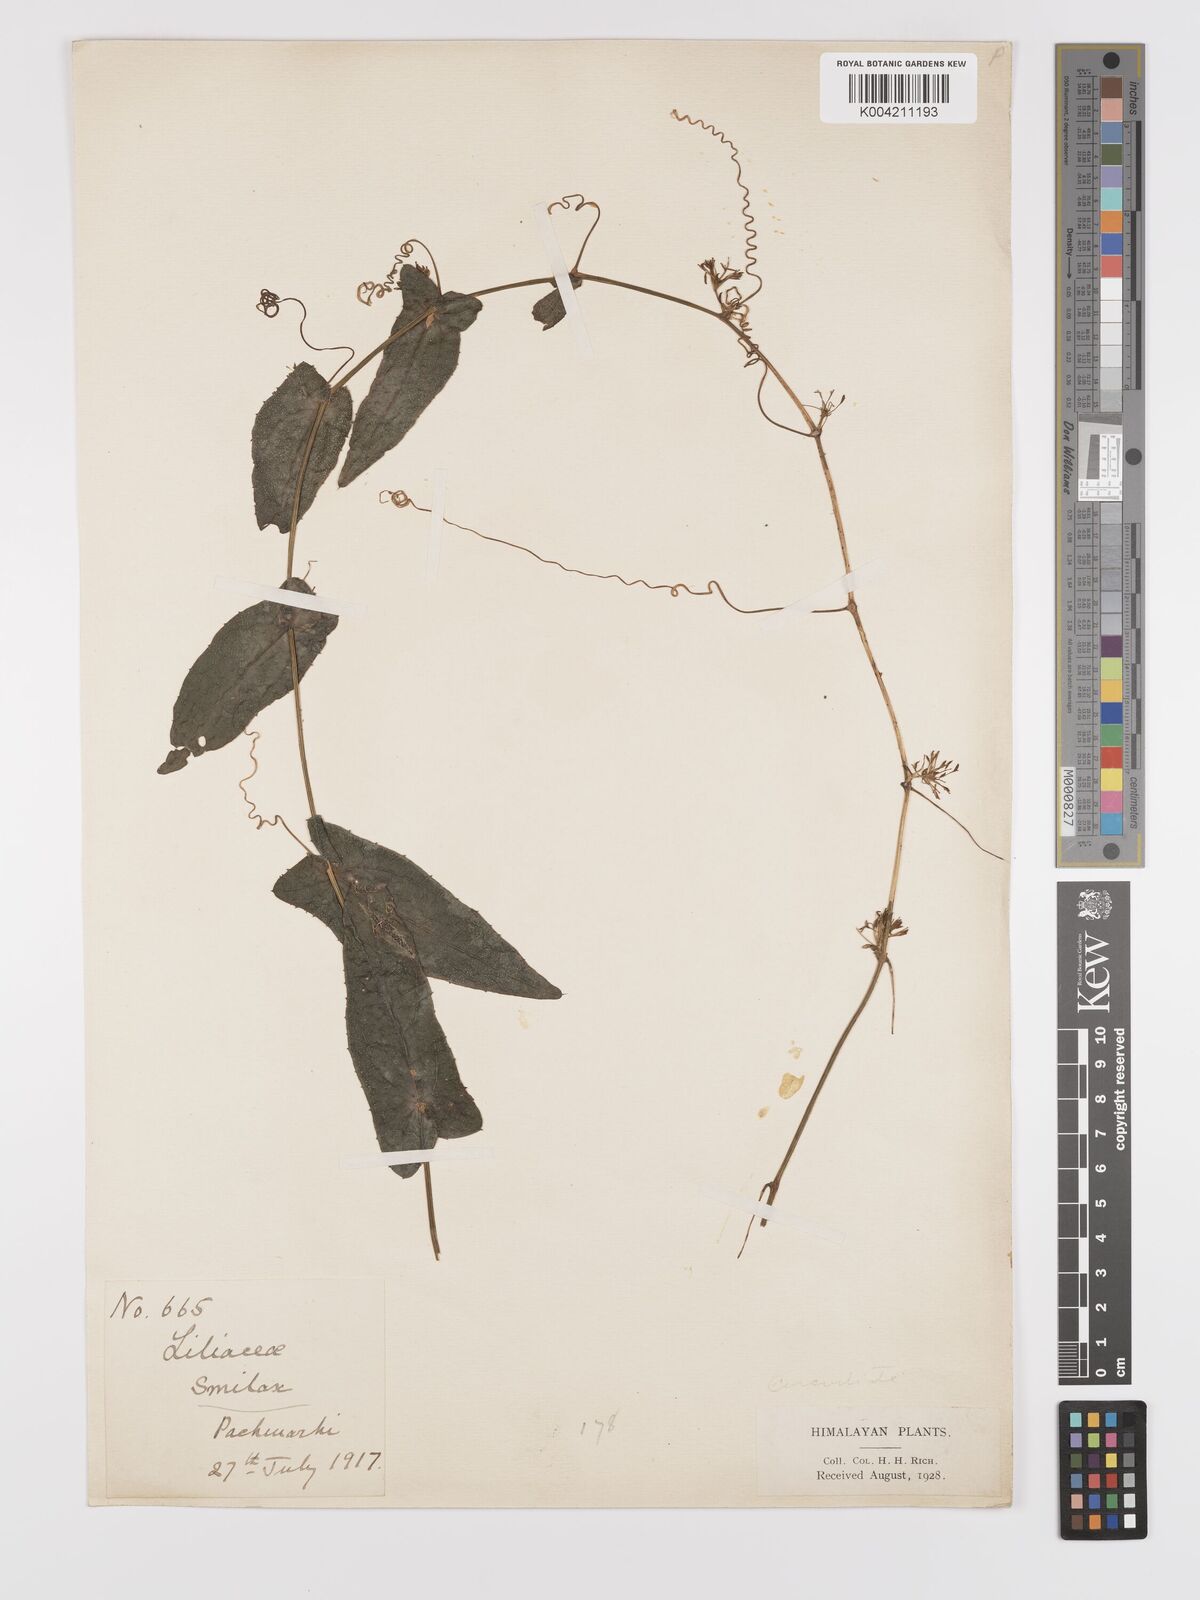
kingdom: Plantae
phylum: Tracheophyta
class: Magnoliopsida
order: Cucurbitales
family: Cucurbitaceae
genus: Solena
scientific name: Solena amplexicaulis
